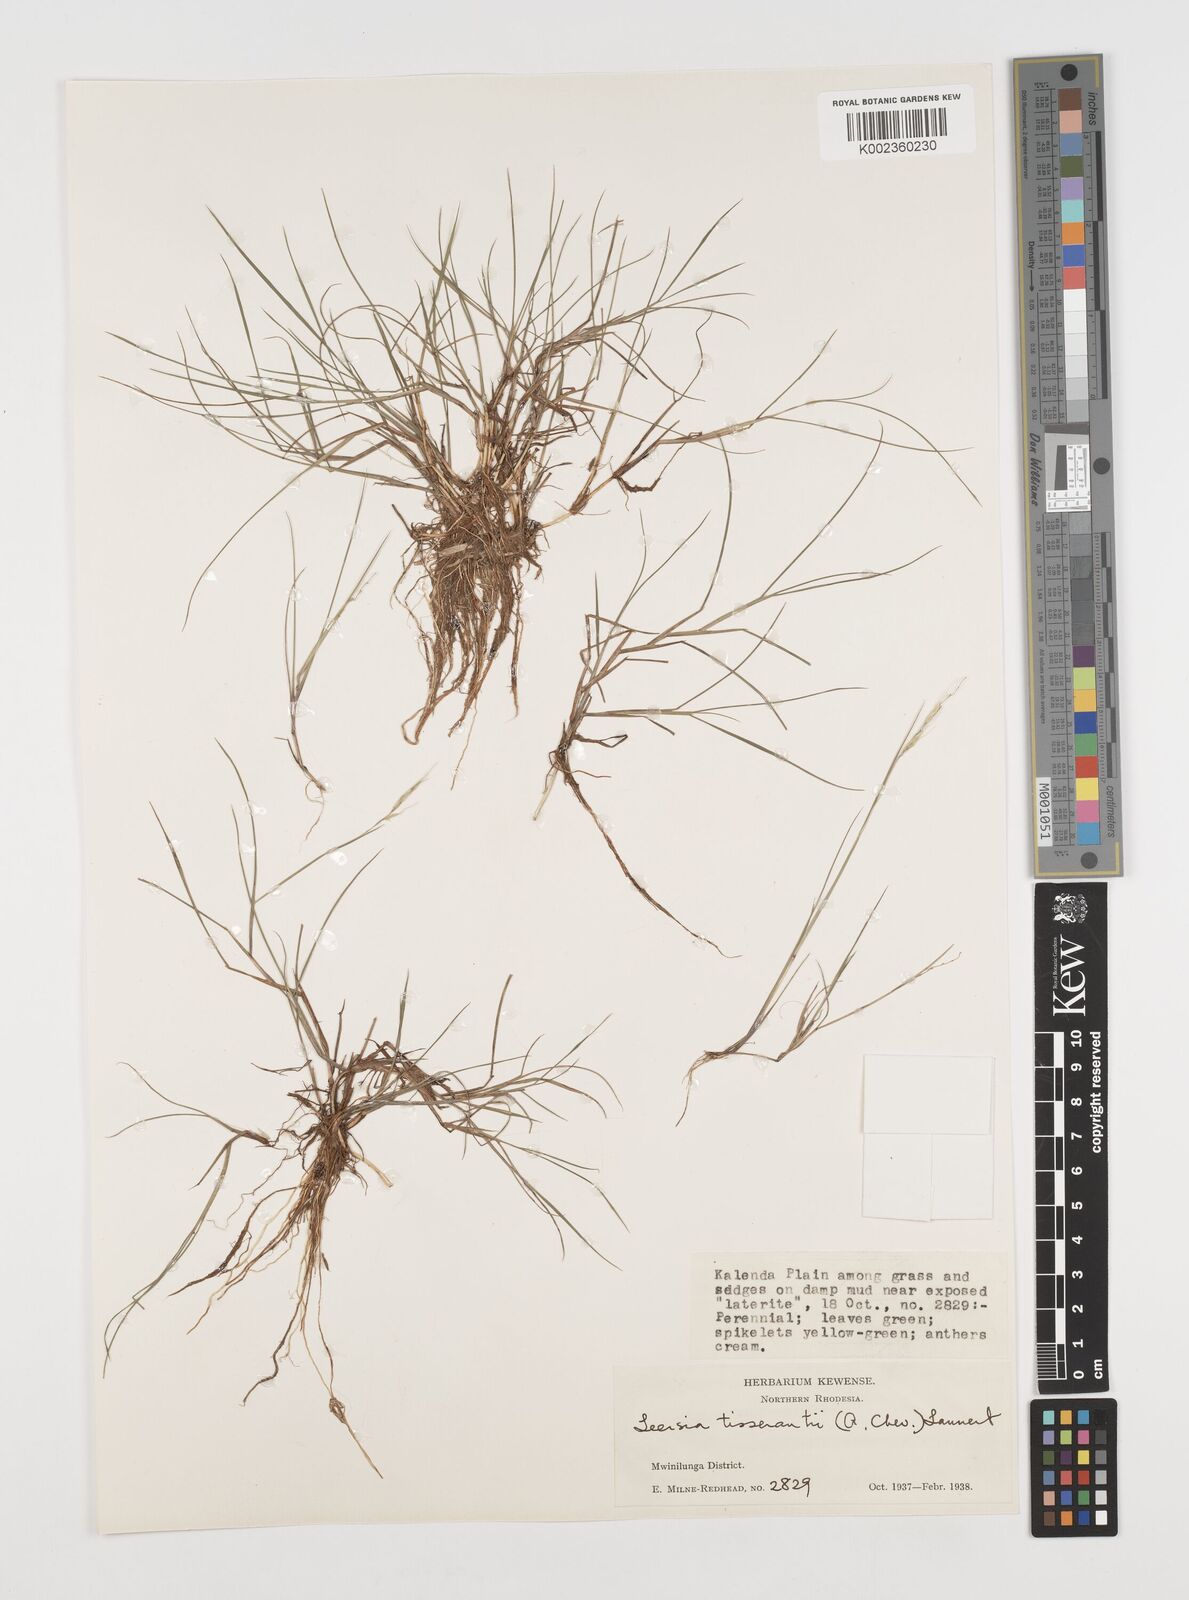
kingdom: Plantae
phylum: Tracheophyta
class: Liliopsida
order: Poales
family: Poaceae
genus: Leersia
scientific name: Leersia tisserantii
